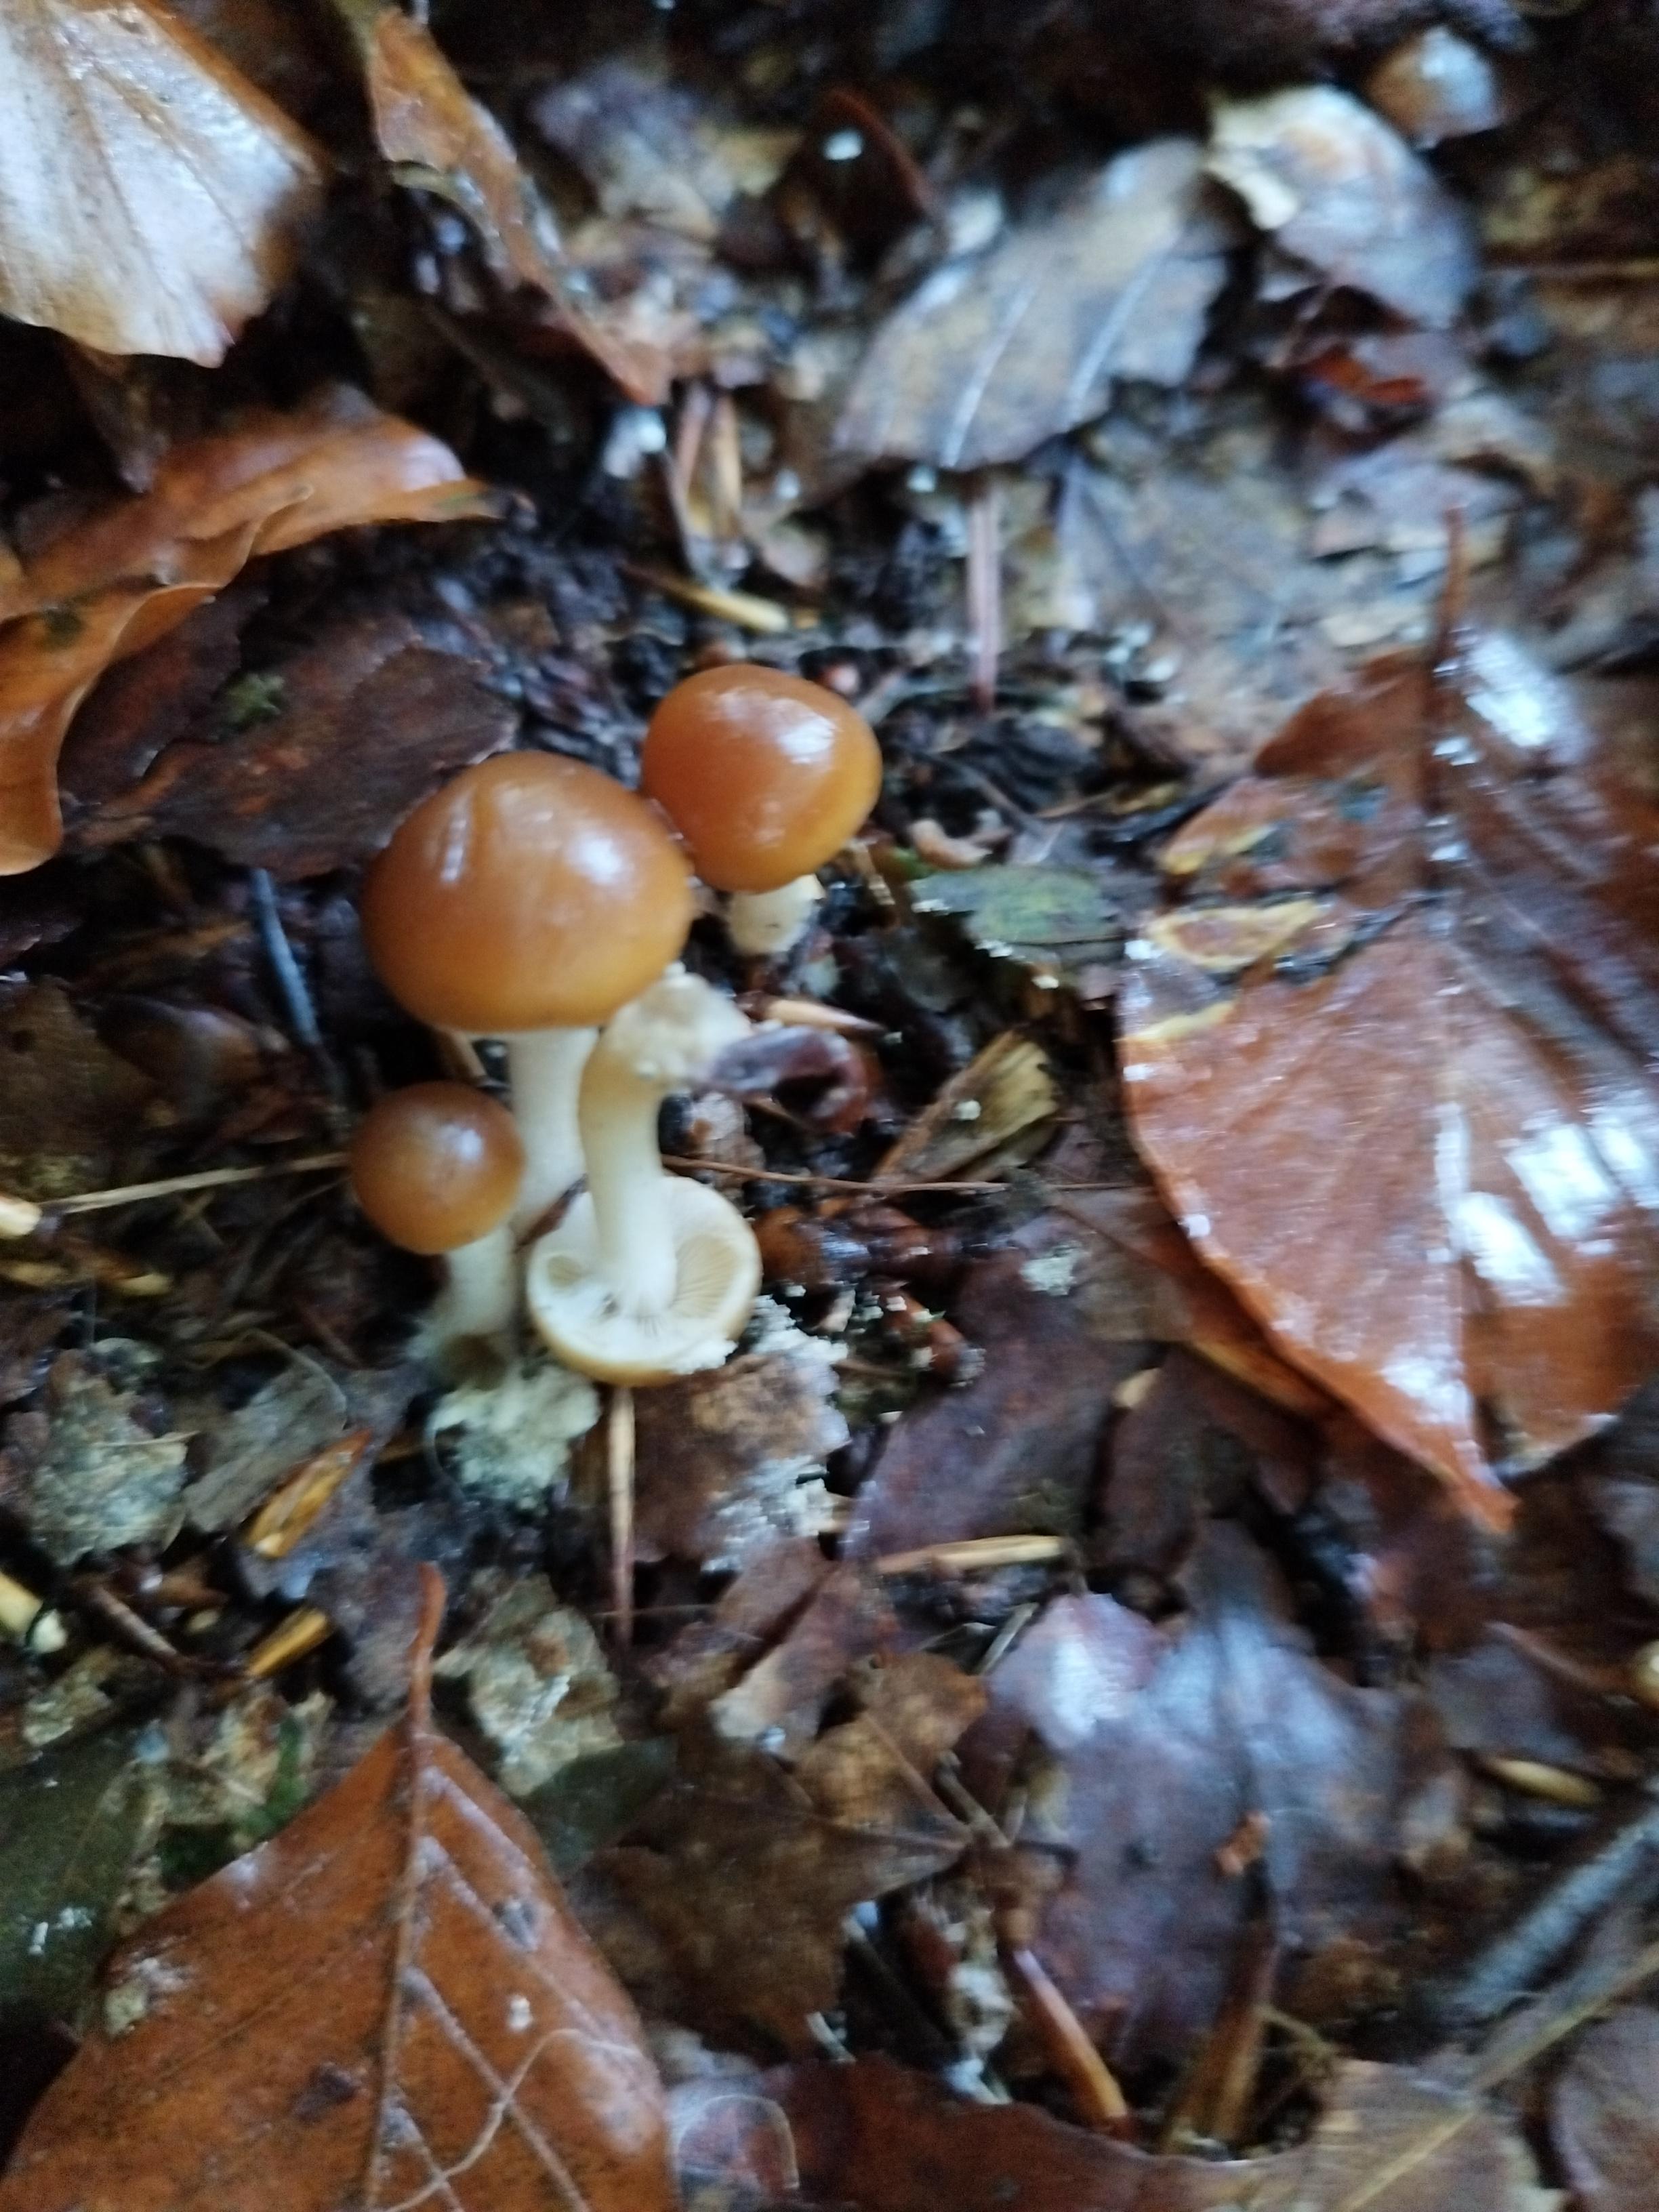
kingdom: Fungi
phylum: Basidiomycota
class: Agaricomycetes
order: Agaricales
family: Psathyrellaceae
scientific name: Psathyrellaceae
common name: mørkhatfamilien
